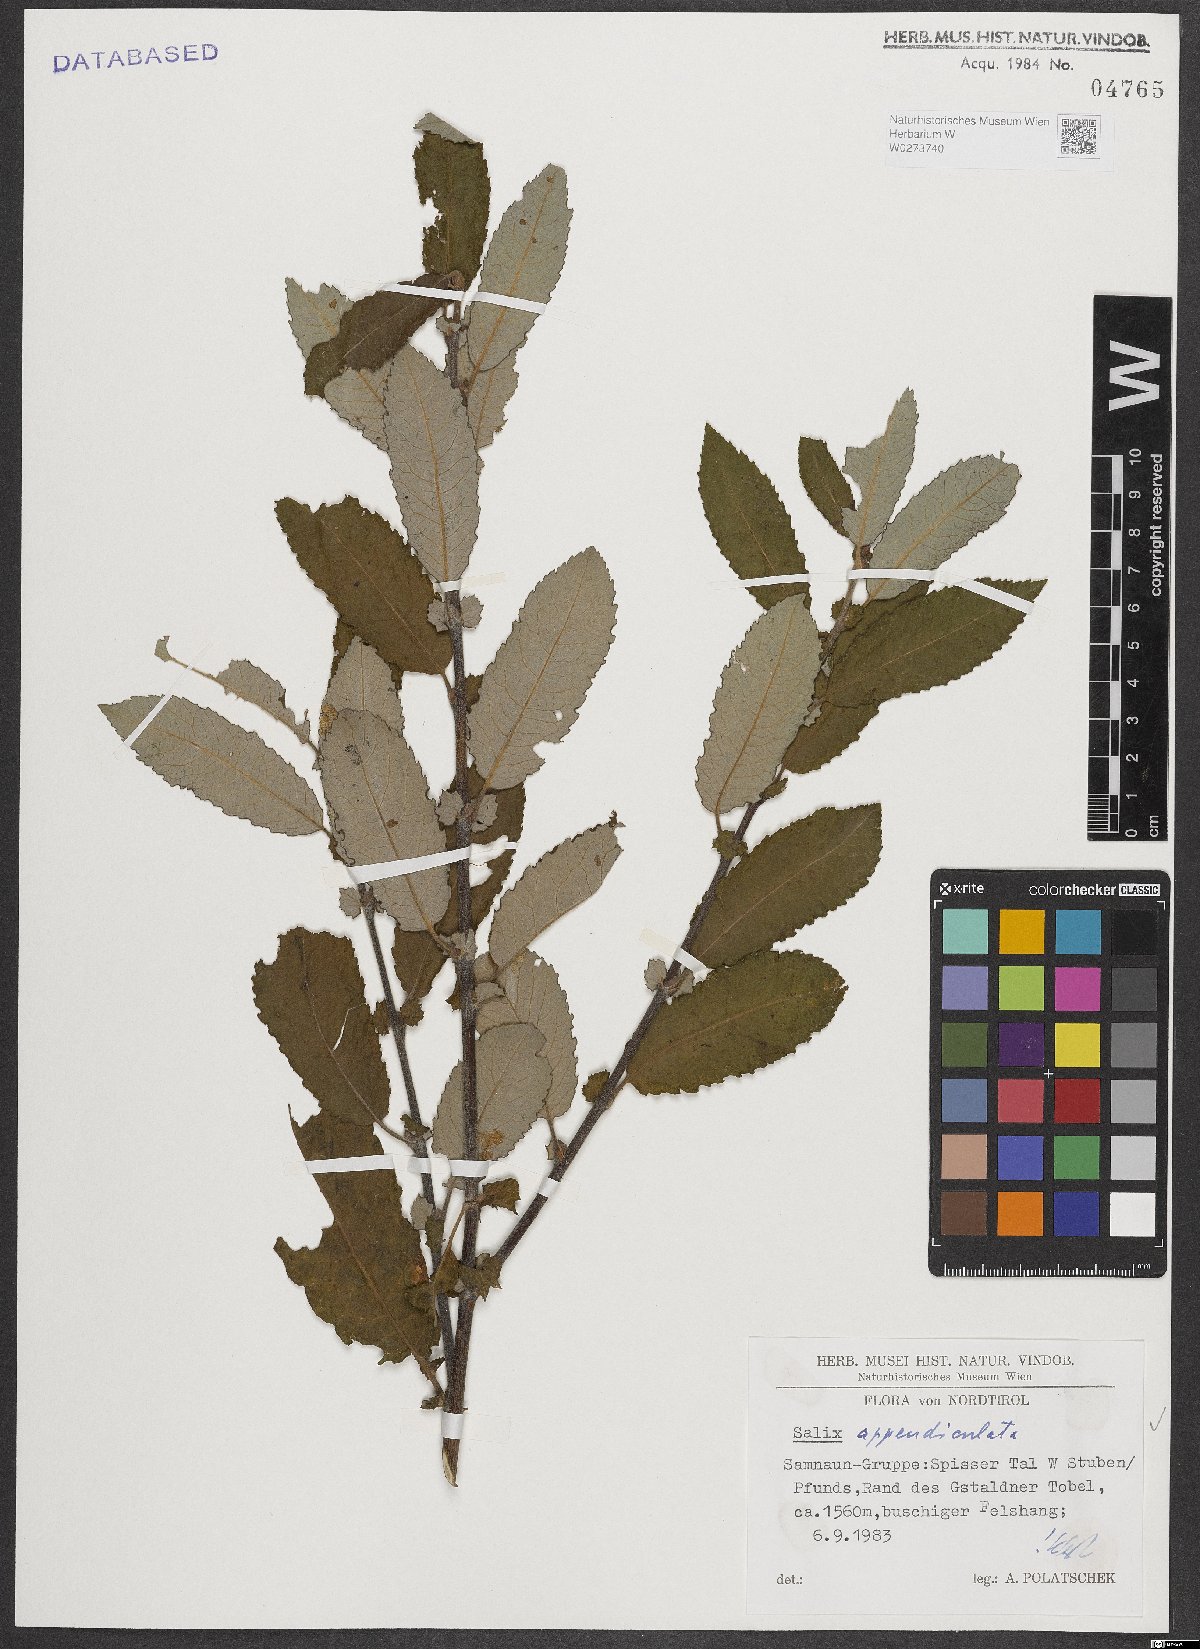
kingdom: Plantae
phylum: Tracheophyta
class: Magnoliopsida
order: Malpighiales
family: Salicaceae
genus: Salix
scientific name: Salix appendiculata
